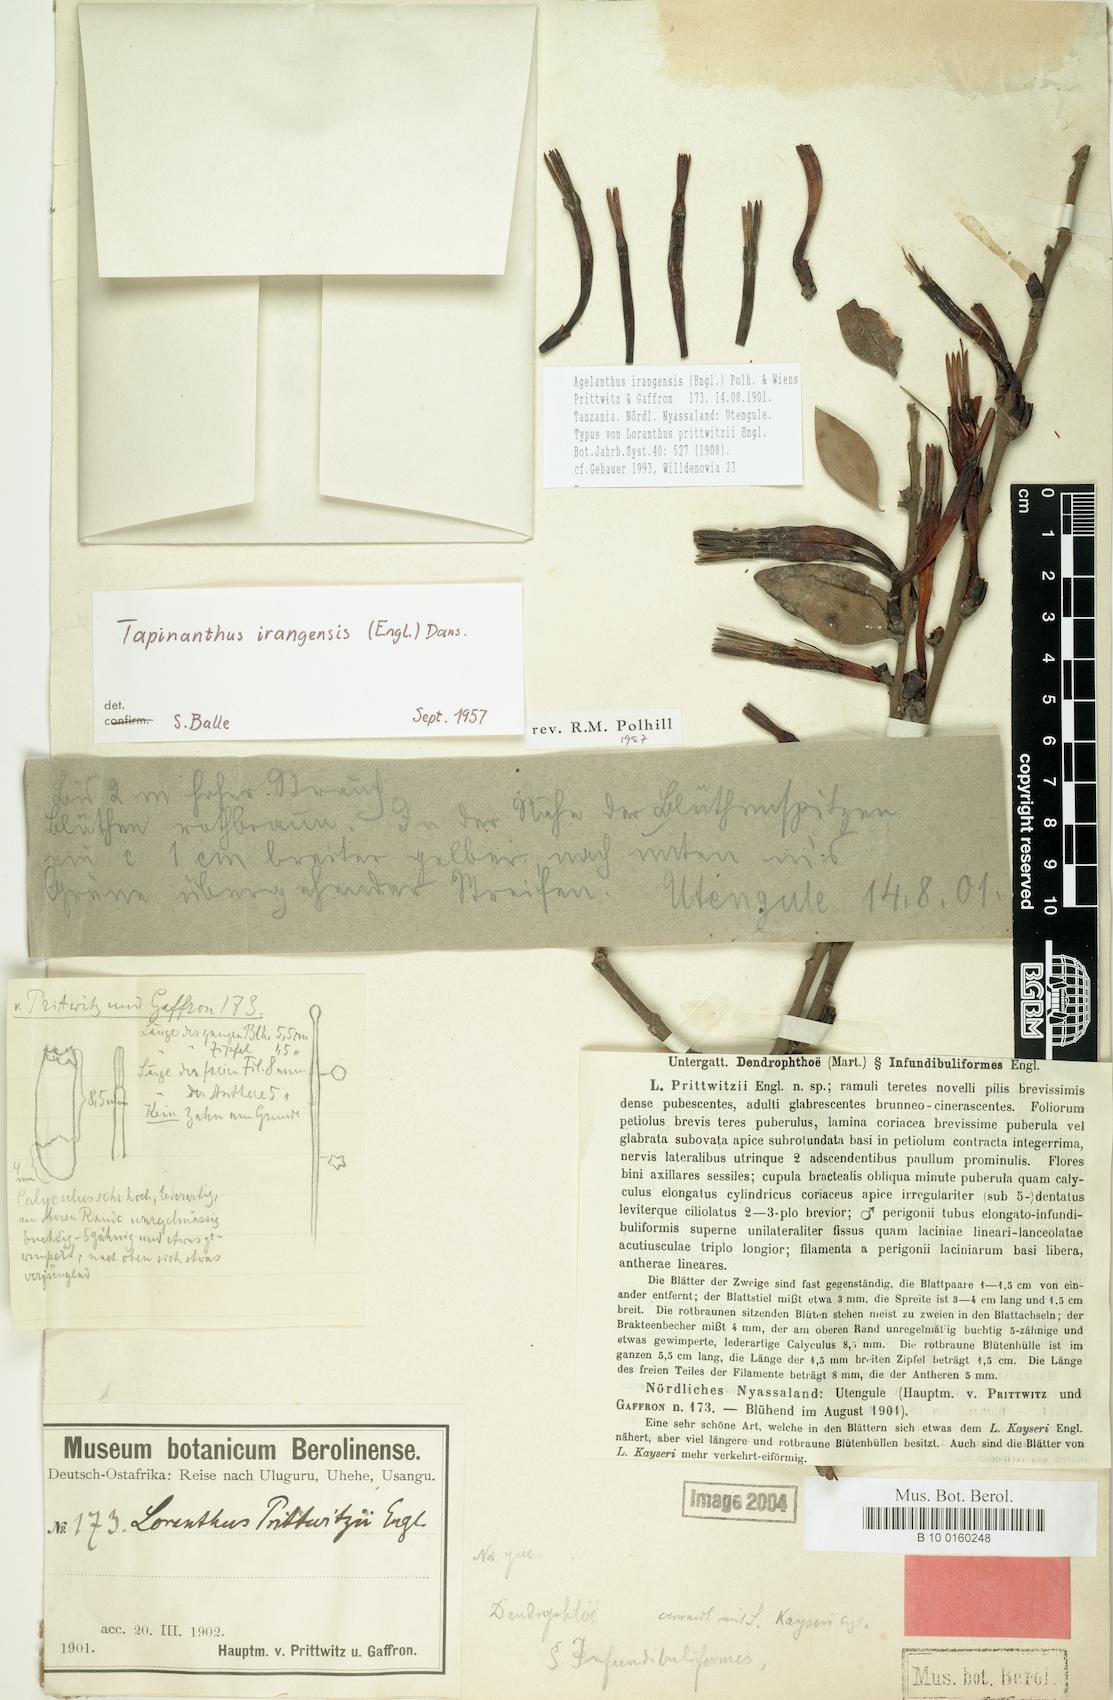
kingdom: Plantae
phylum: Tracheophyta
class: Magnoliopsida
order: Santalales
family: Loranthaceae
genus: Agelanthus
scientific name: Agelanthus irangensis
